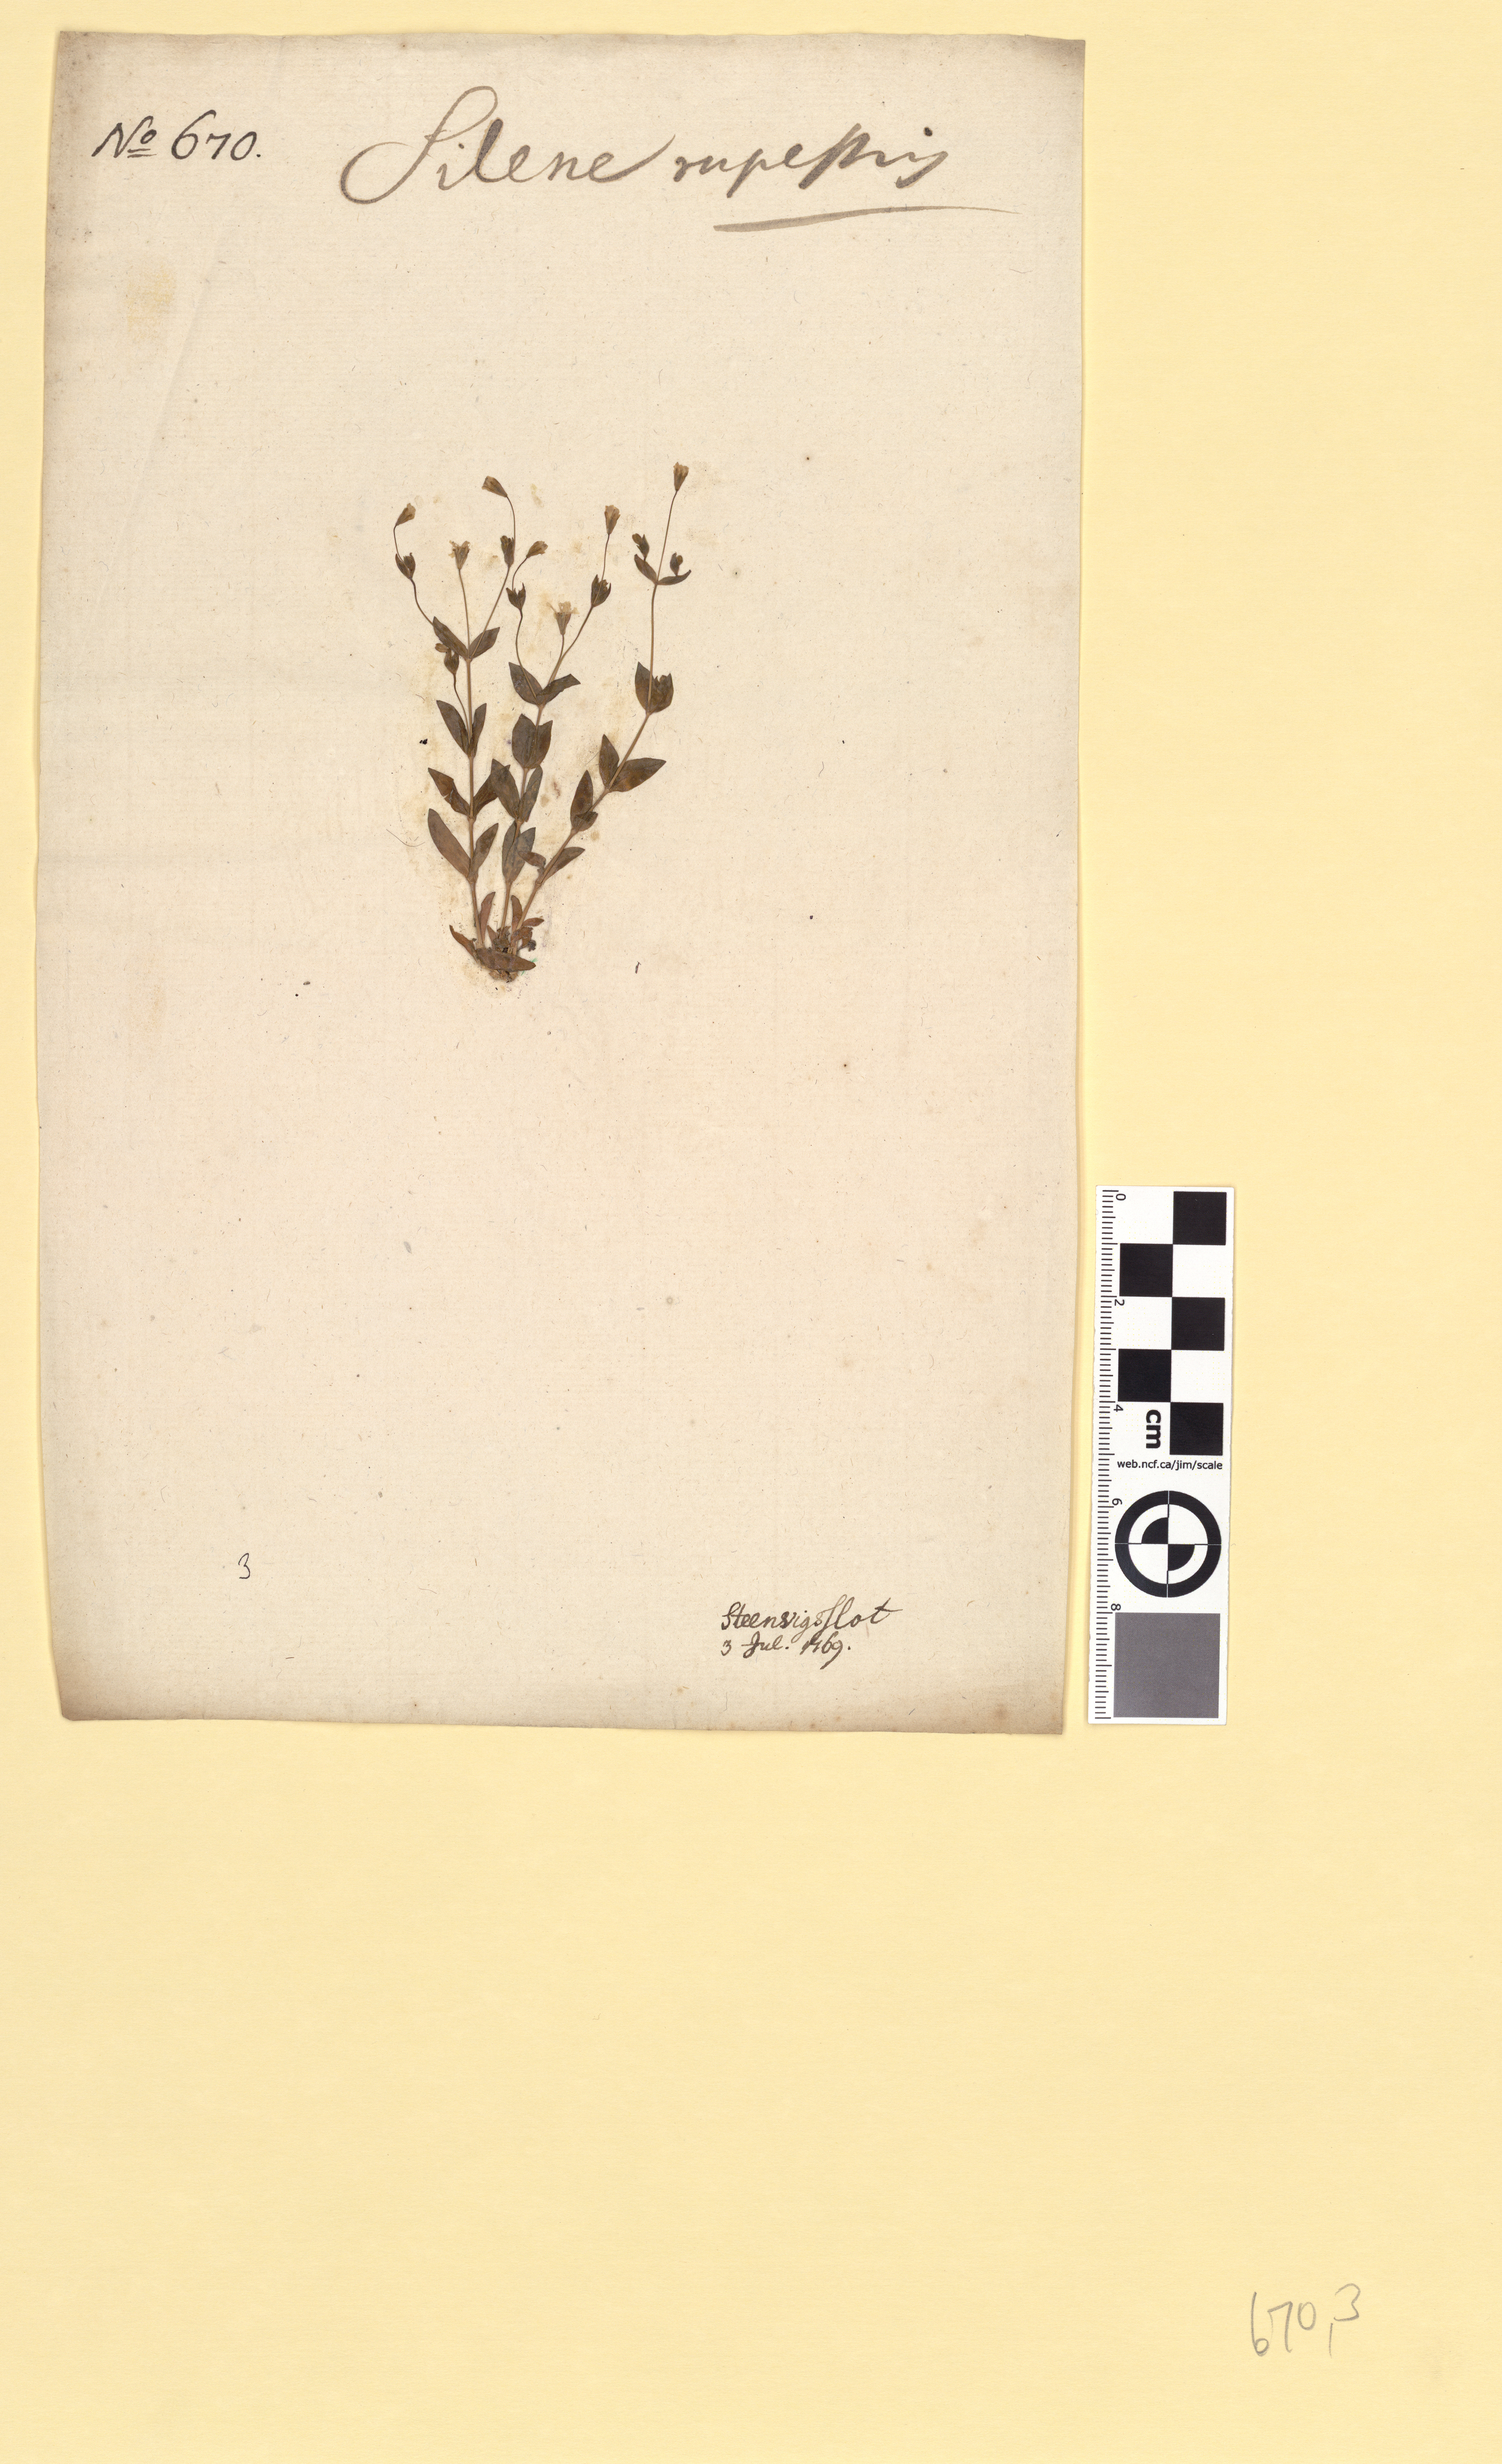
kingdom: Plantae
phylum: Tracheophyta
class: Magnoliopsida
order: Caryophyllales
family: Caryophyllaceae
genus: Atocion
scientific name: Atocion rupestre
